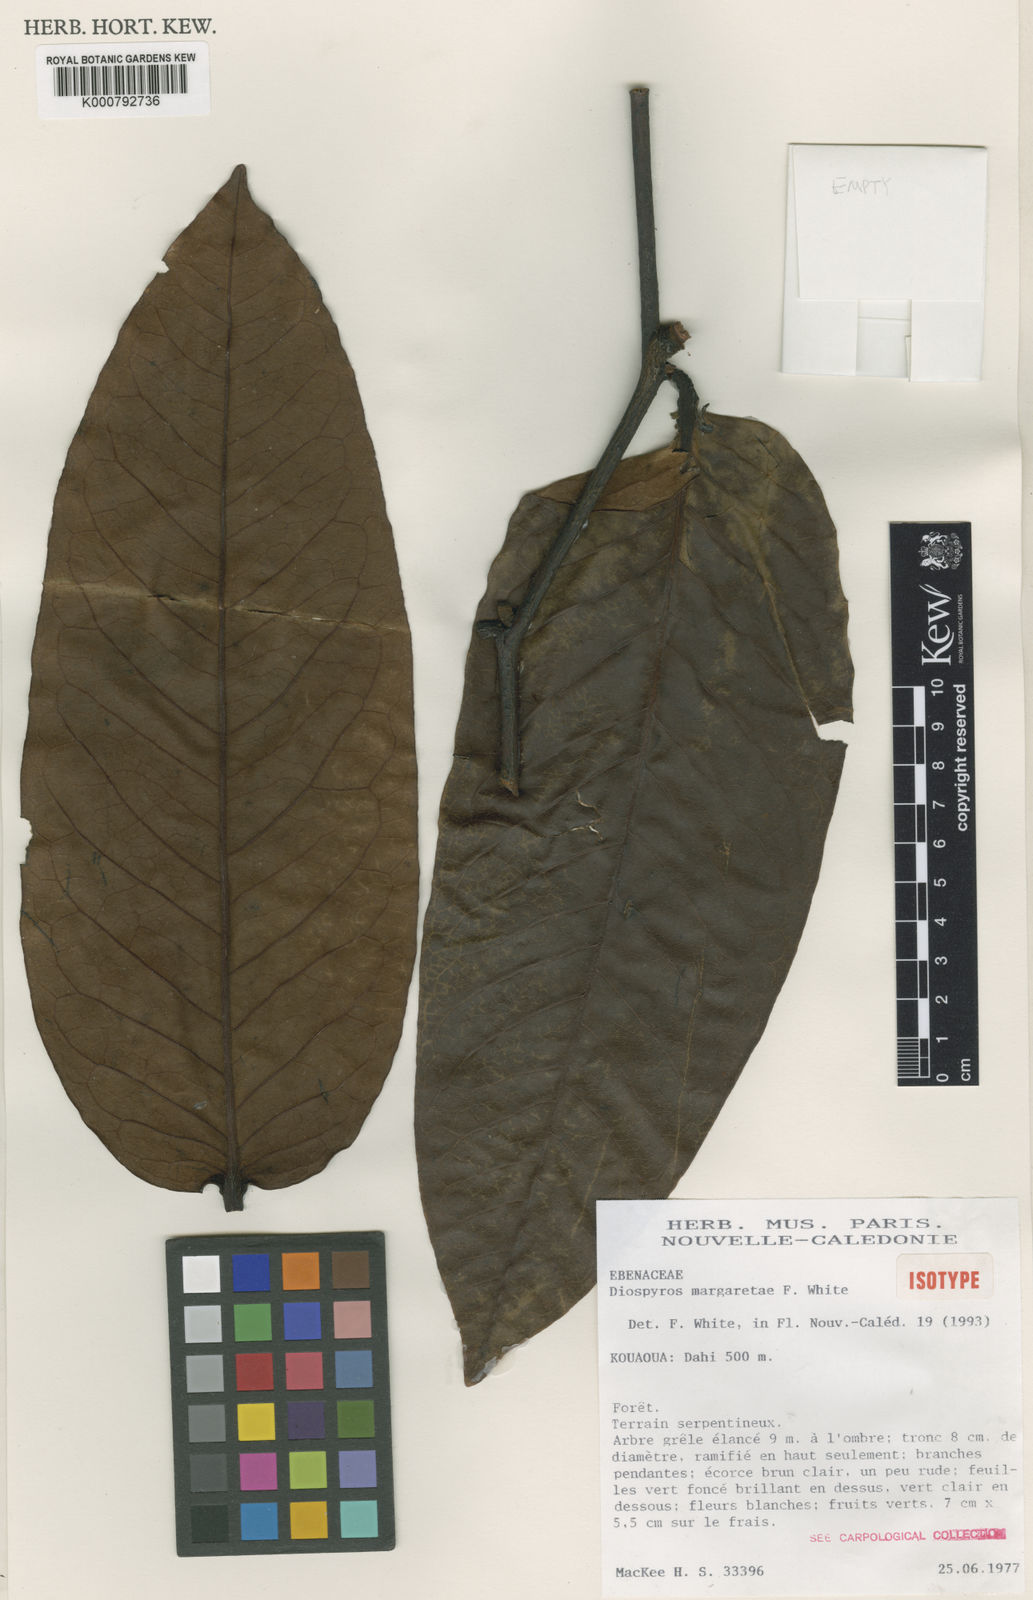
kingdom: Plantae
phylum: Tracheophyta
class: Magnoliopsida
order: Ericales
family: Ebenaceae
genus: Diospyros
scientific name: Diospyros margaretae
